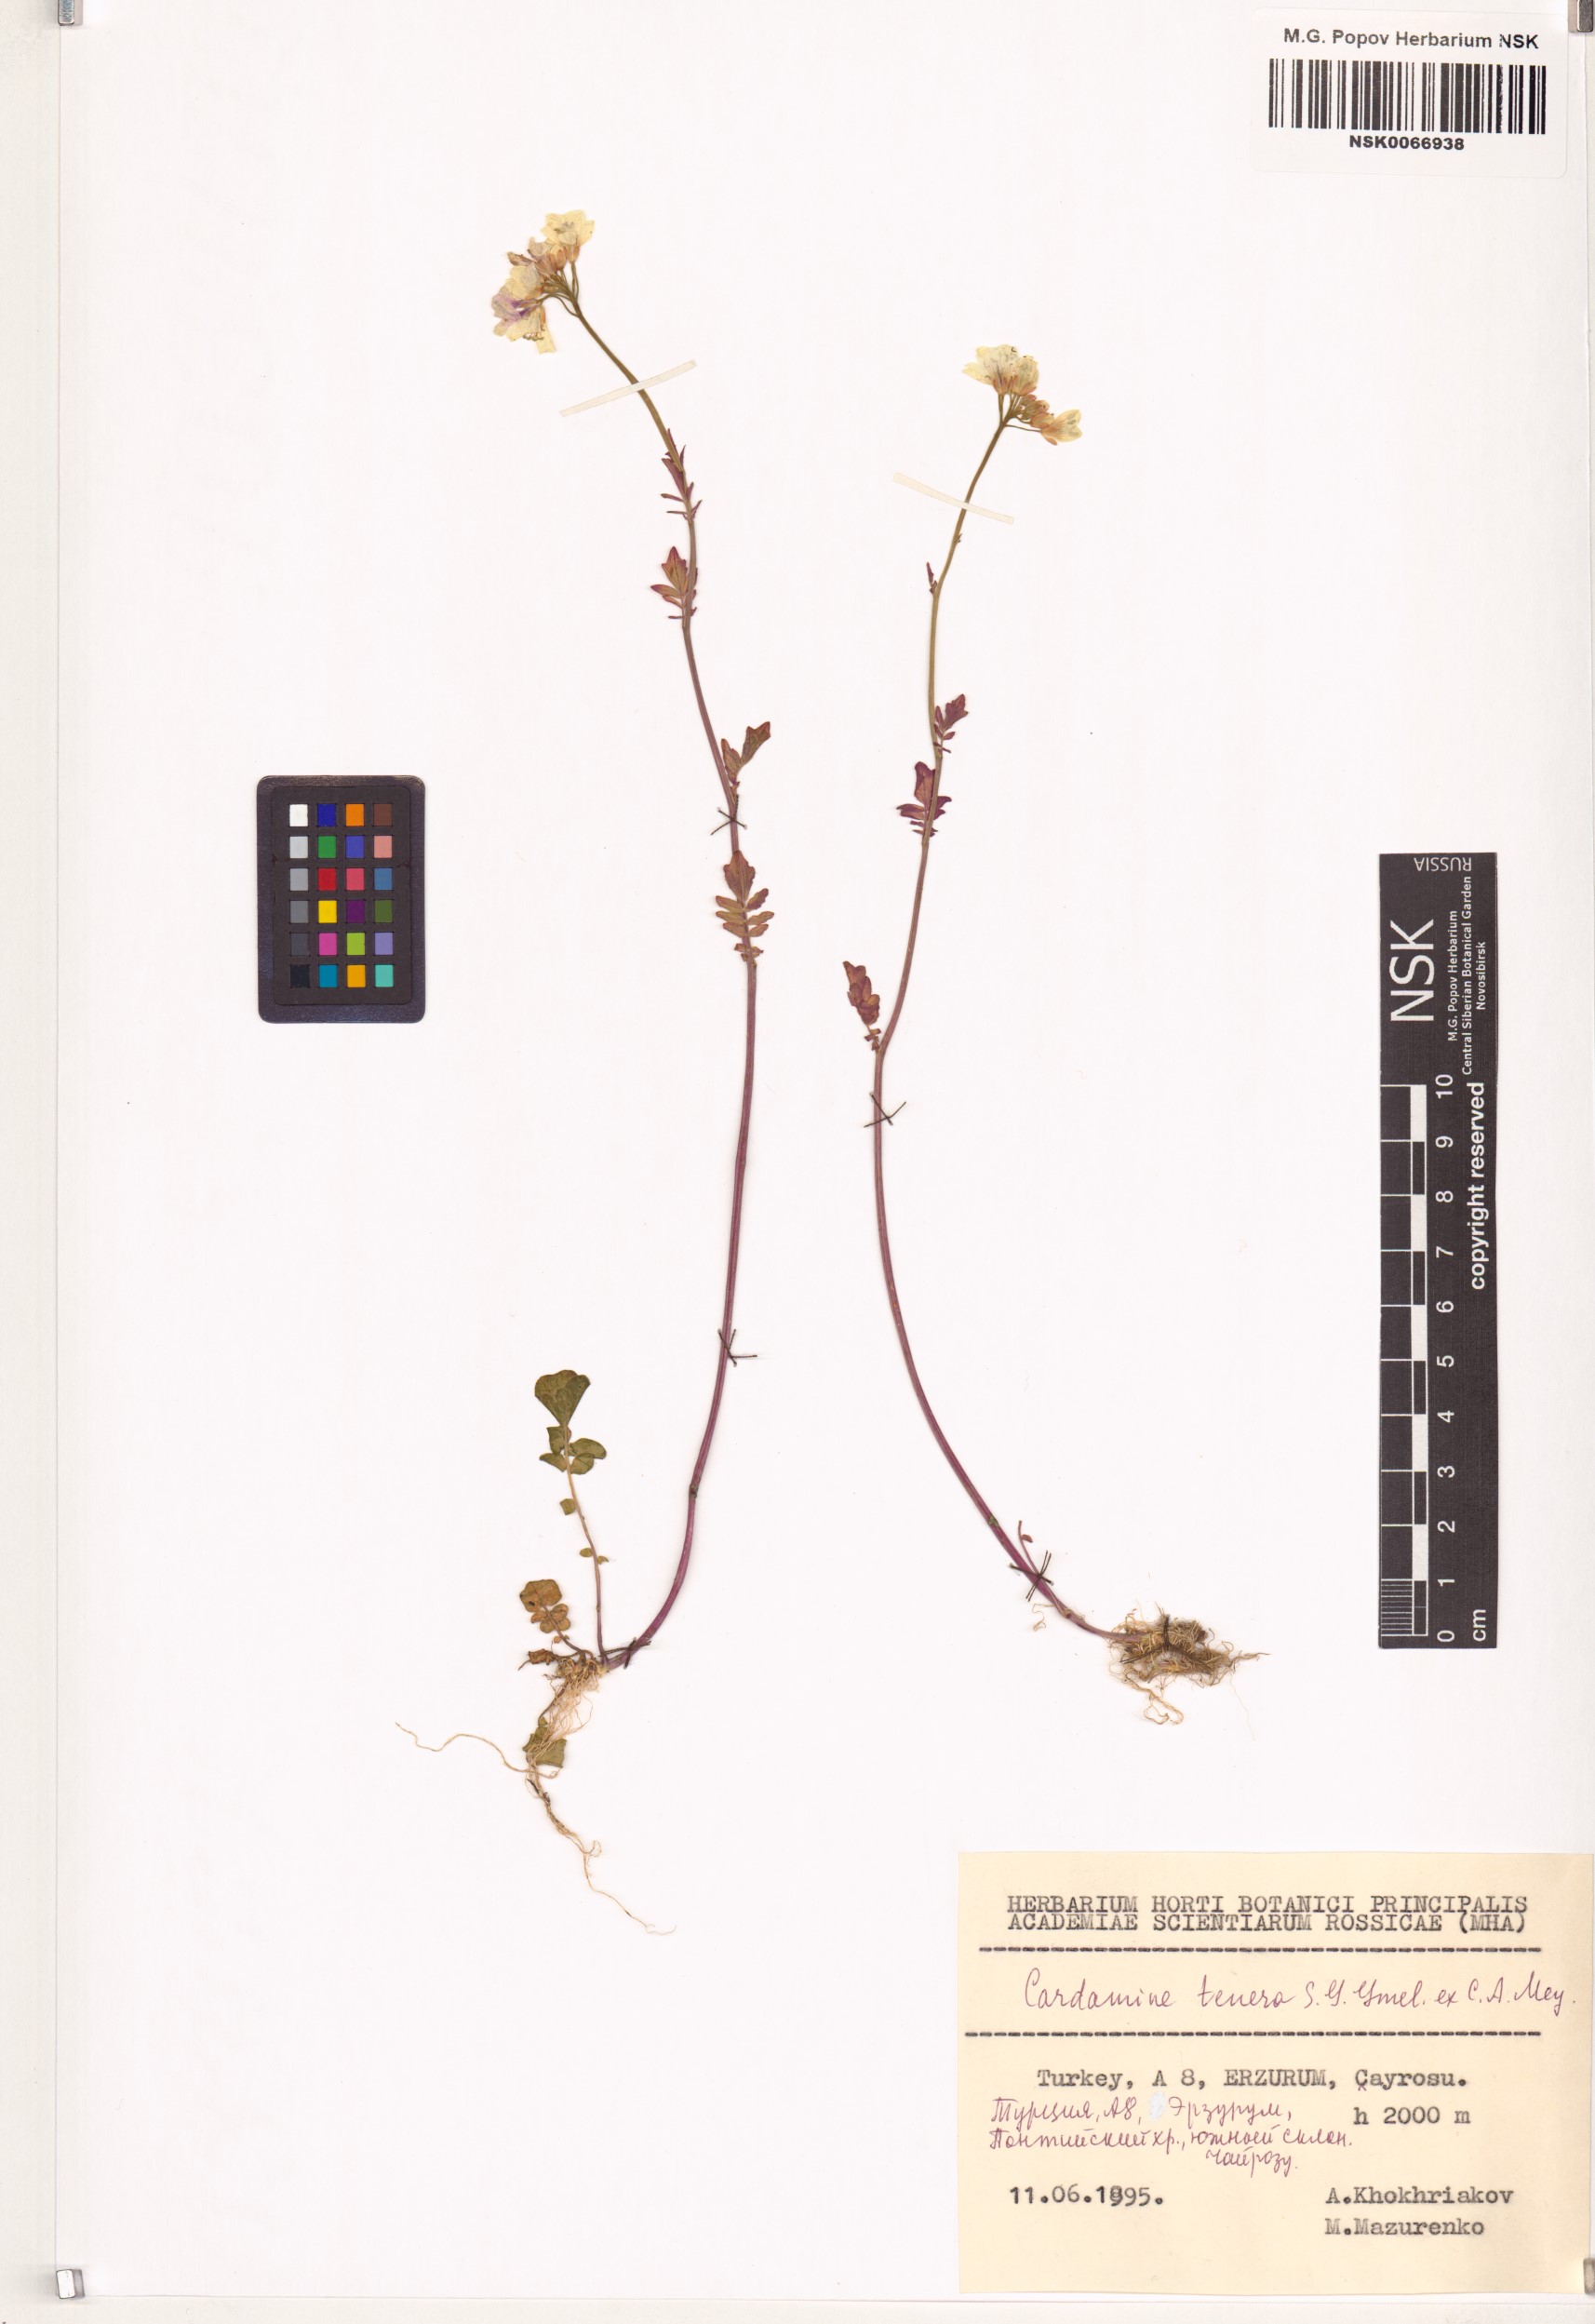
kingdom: Plantae
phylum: Tracheophyta
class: Magnoliopsida
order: Brassicales
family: Brassicaceae
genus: Cardamine
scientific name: Cardamine tenera
